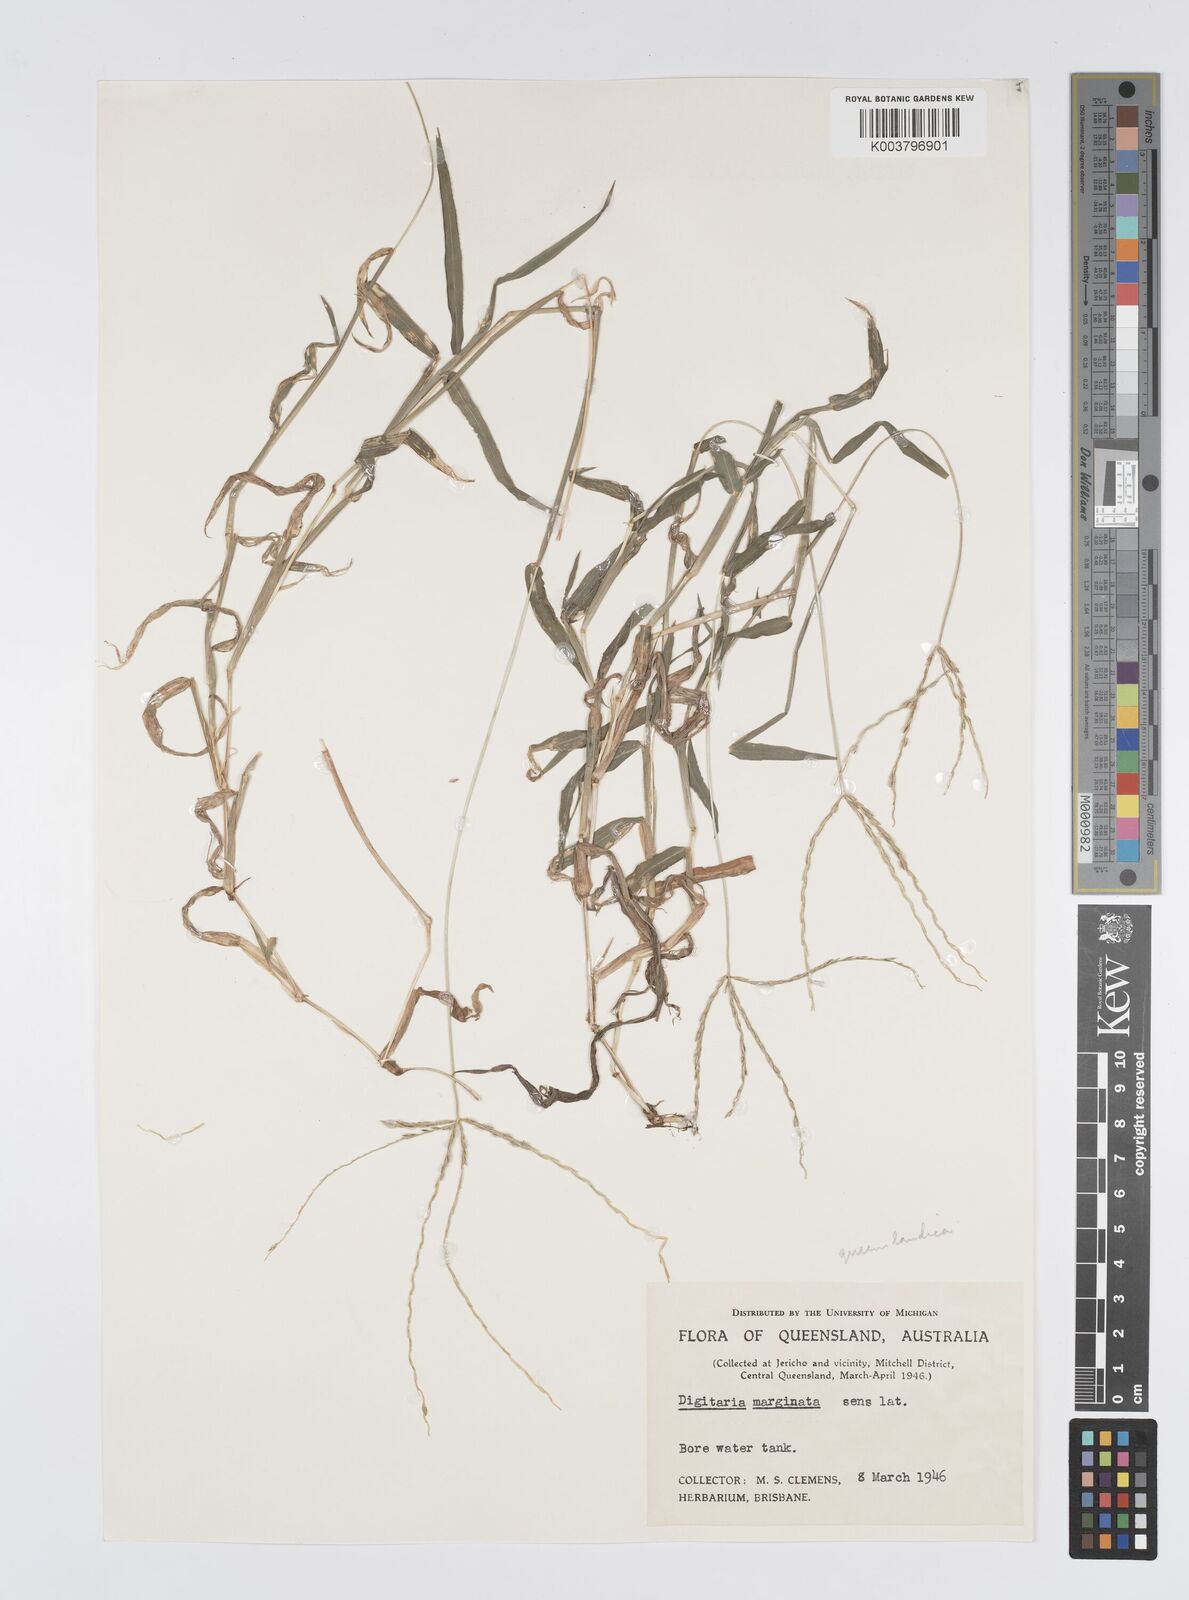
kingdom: Plantae
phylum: Tracheophyta
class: Liliopsida
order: Poales
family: Poaceae
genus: Digitaria
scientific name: Digitaria bicornis
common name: Asian crabgrass
